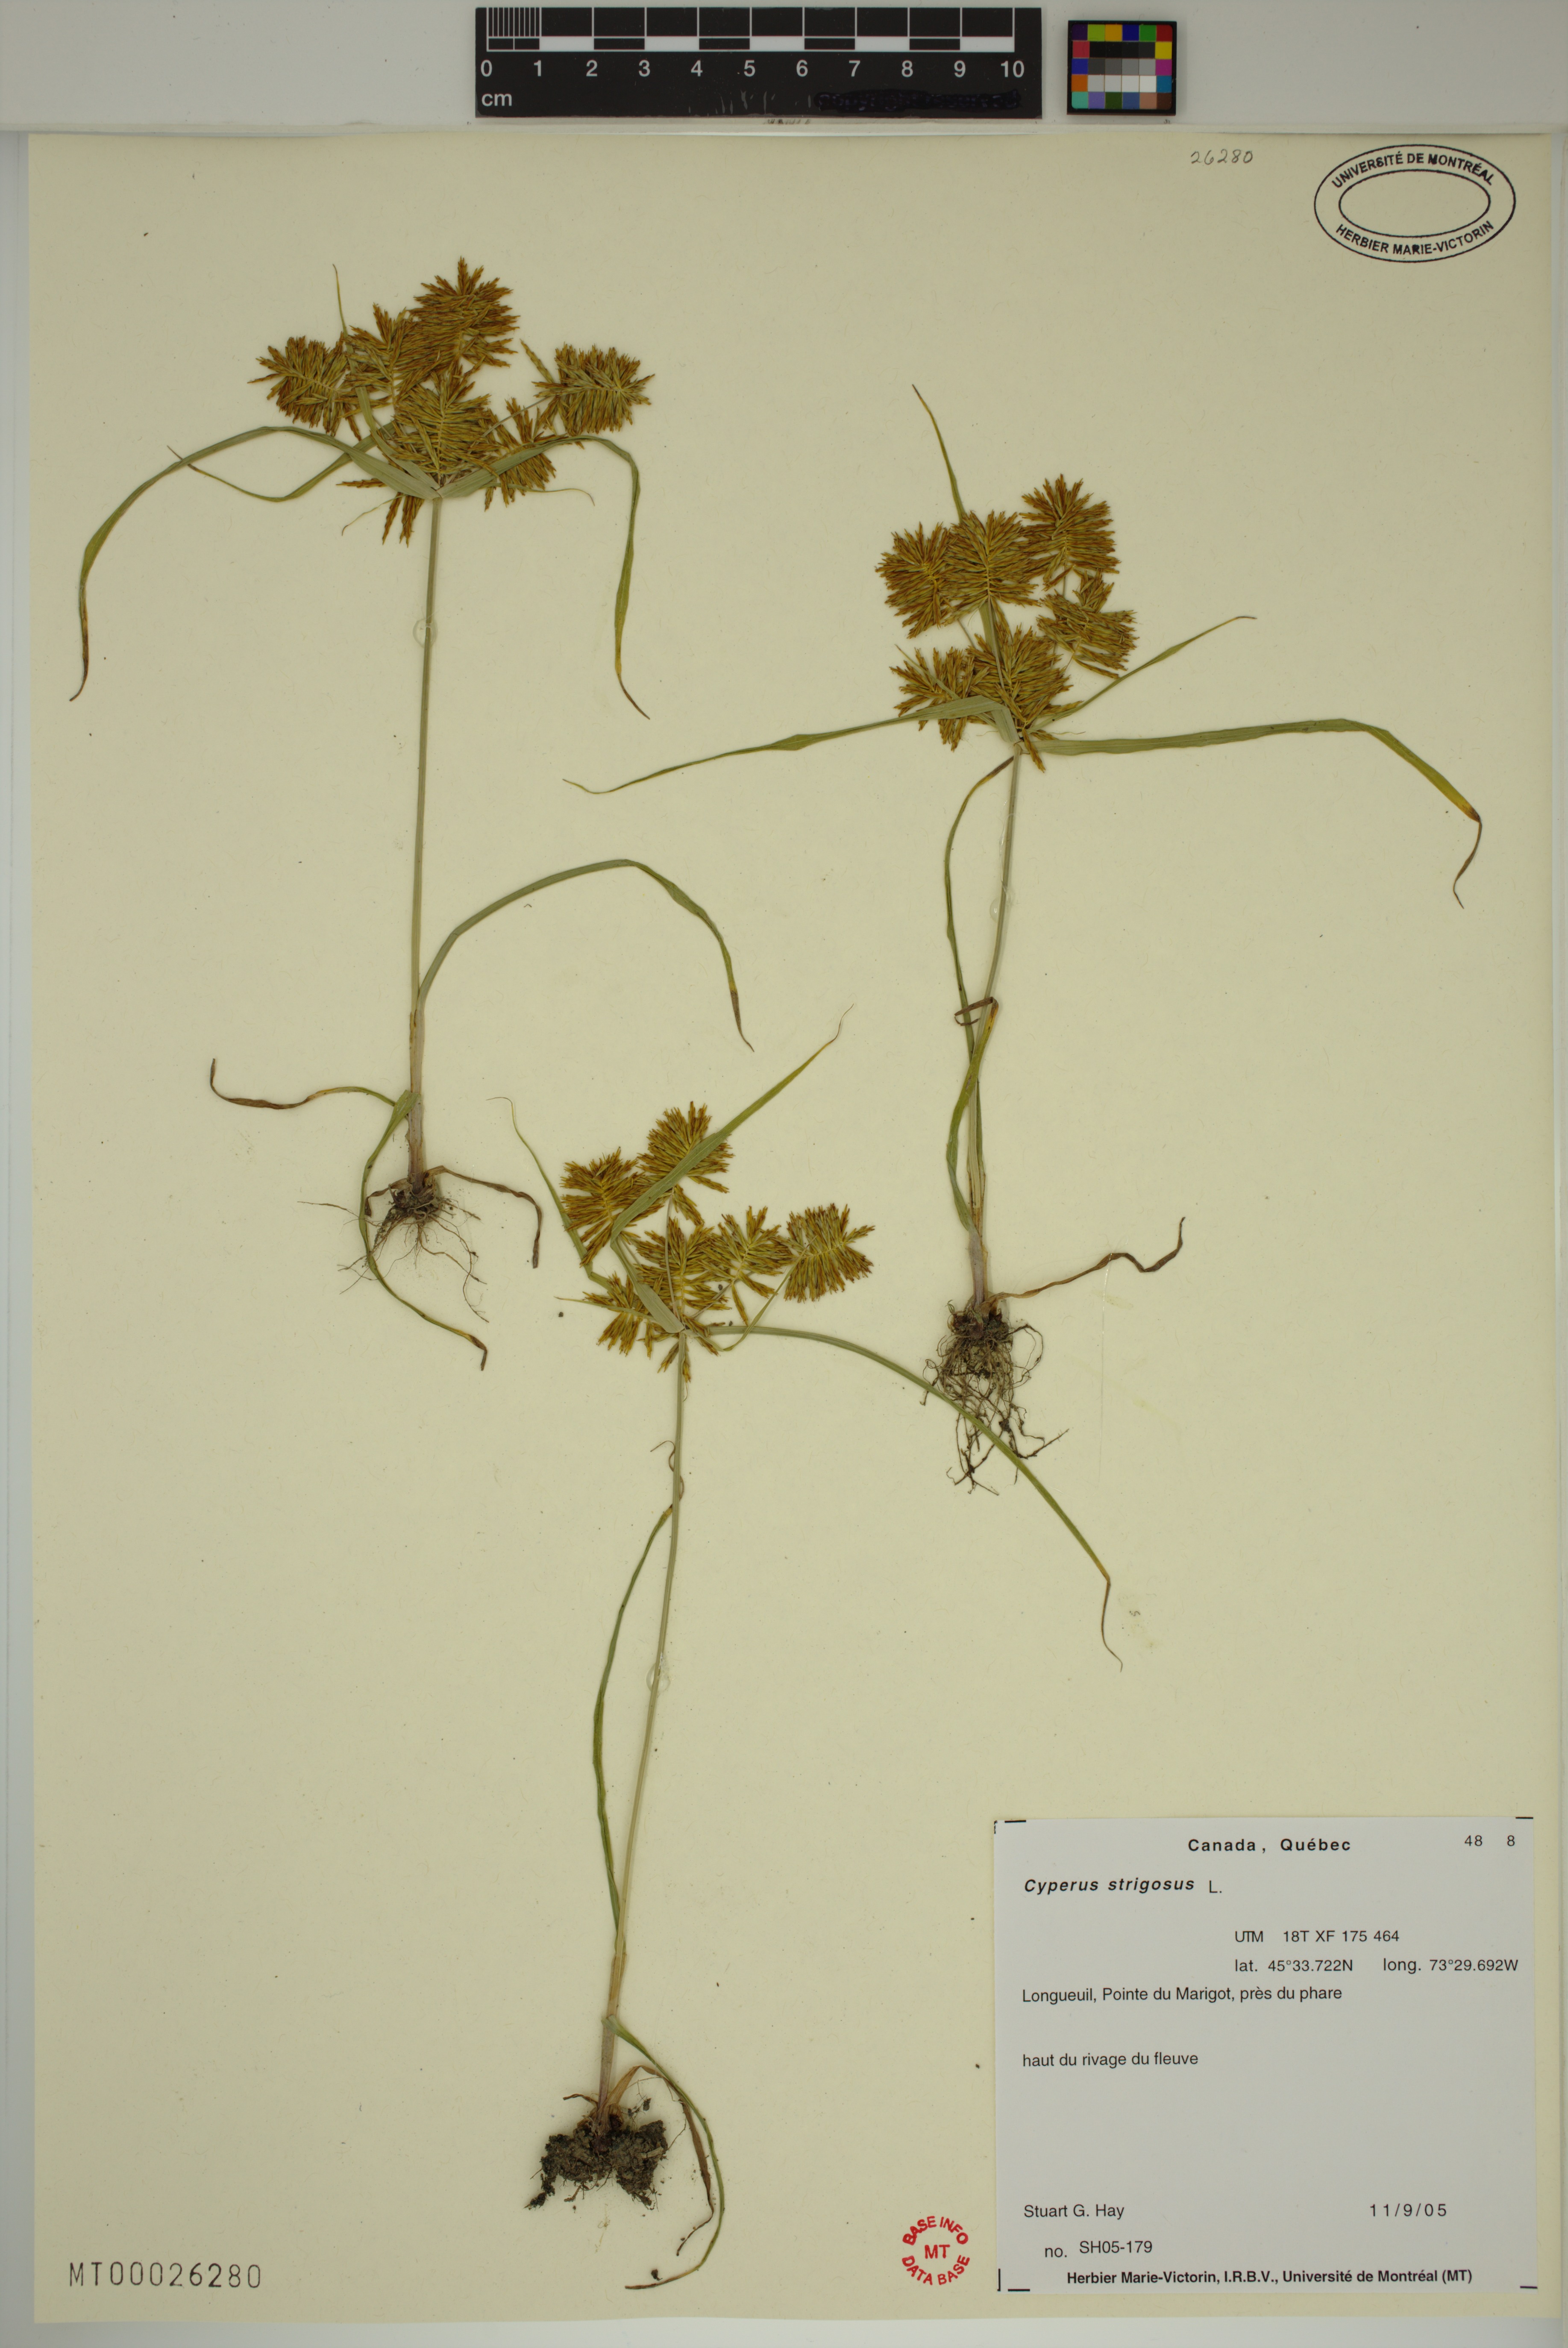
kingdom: Plantae
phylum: Tracheophyta
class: Liliopsida
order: Poales
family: Cyperaceae
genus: Cyperus
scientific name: Cyperus strigosus
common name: False nutsedge
